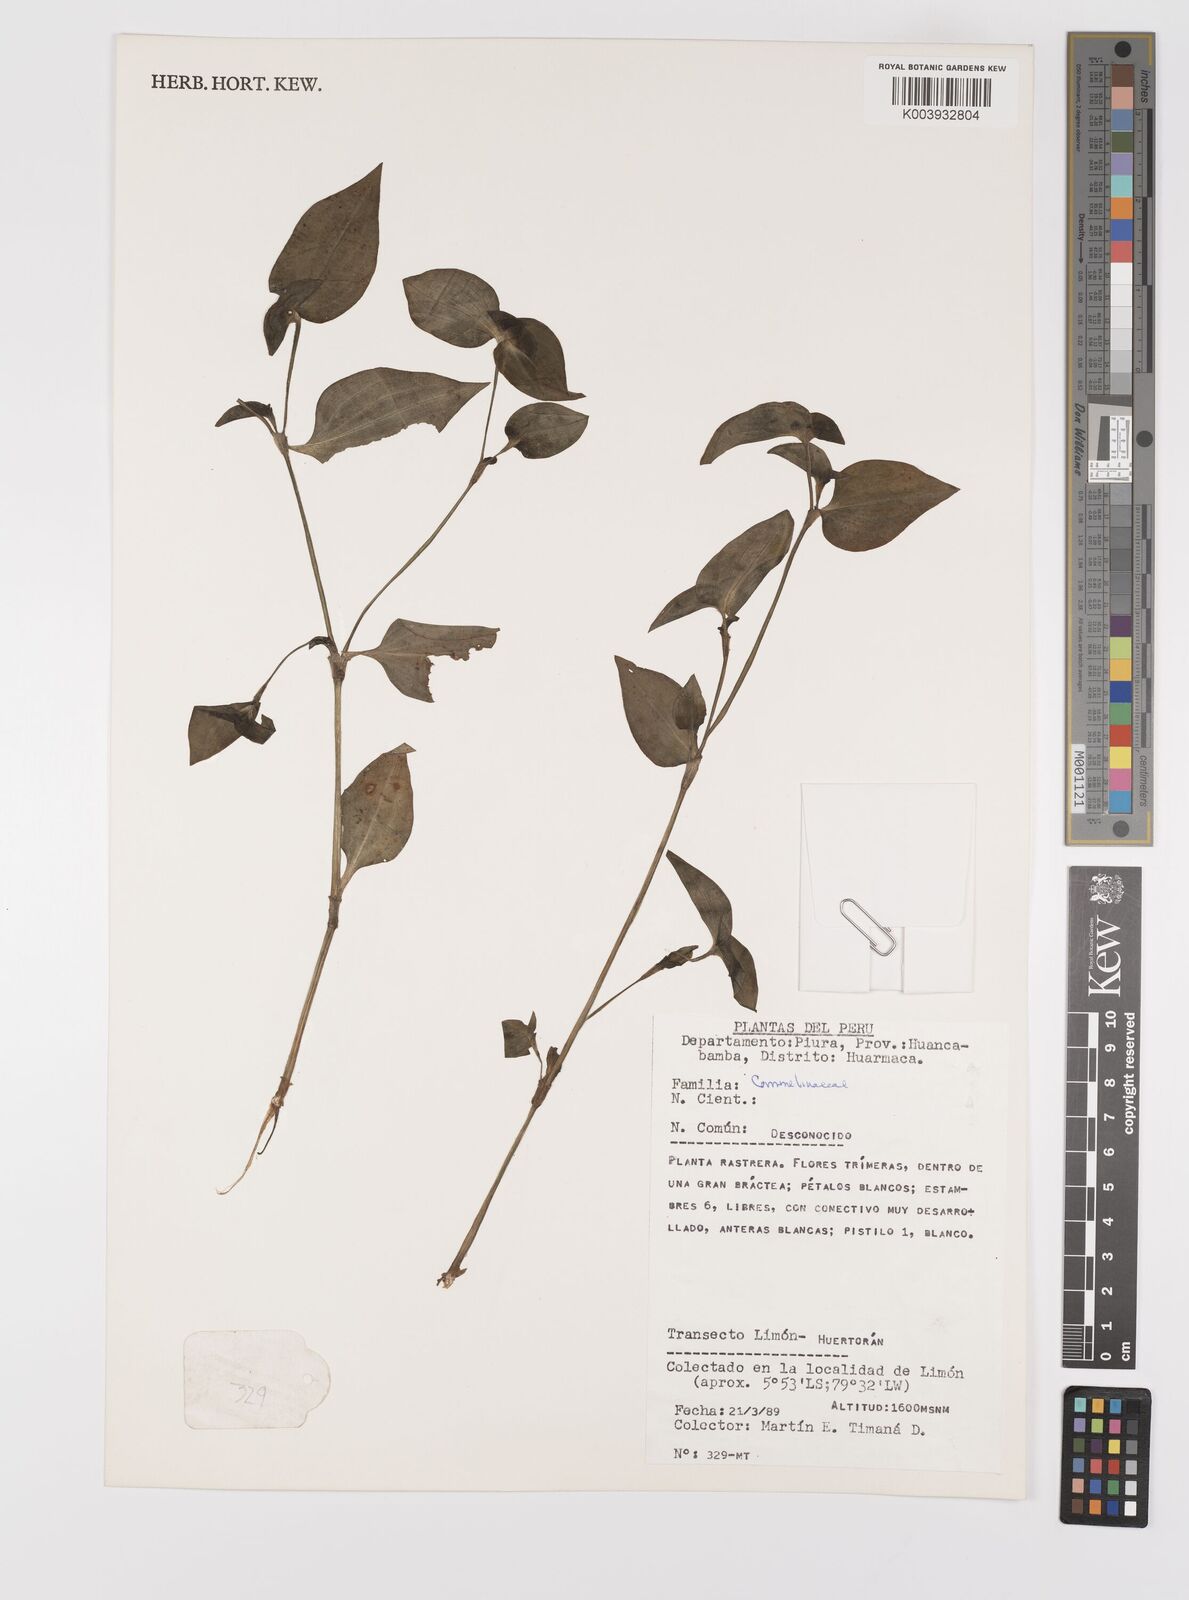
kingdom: Plantae
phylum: Tracheophyta
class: Liliopsida
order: Commelinales
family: Commelinaceae
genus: Commelina
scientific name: Commelina
